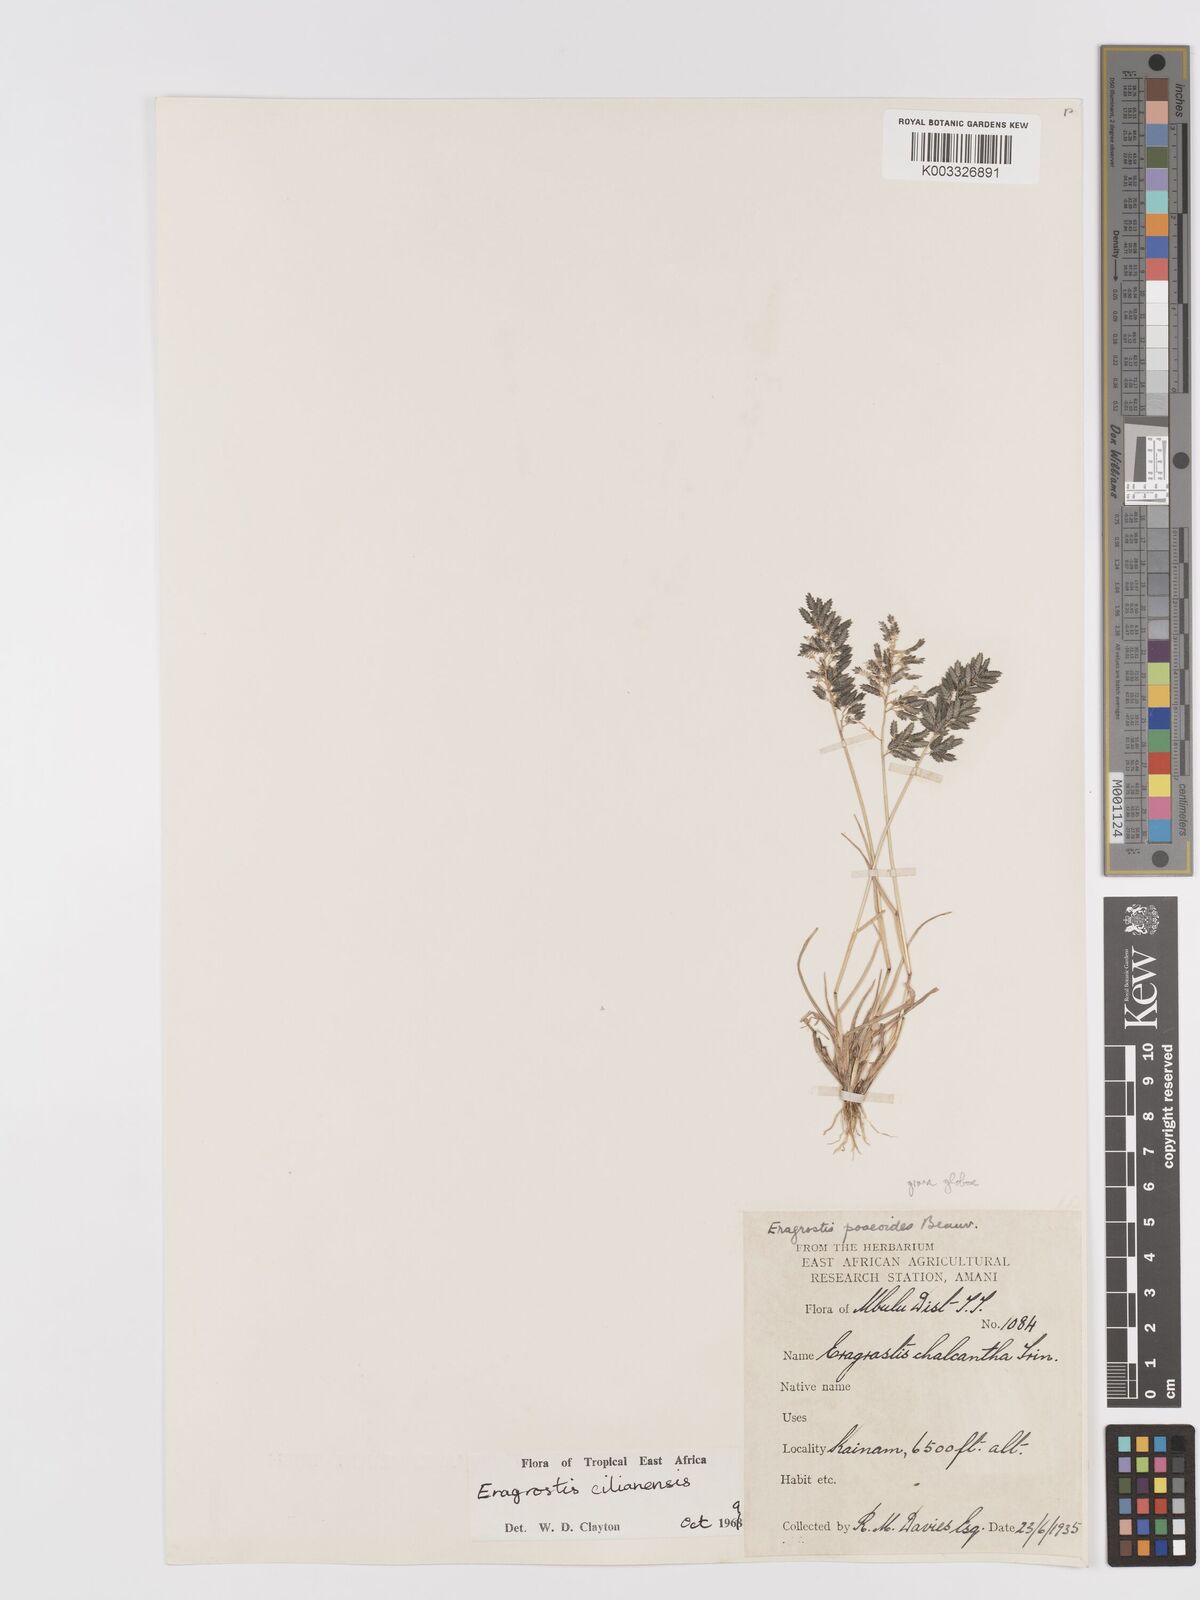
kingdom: Plantae
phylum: Tracheophyta
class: Liliopsida
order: Poales
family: Poaceae
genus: Eragrostis
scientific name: Eragrostis cilianensis
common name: Stinkgrass
